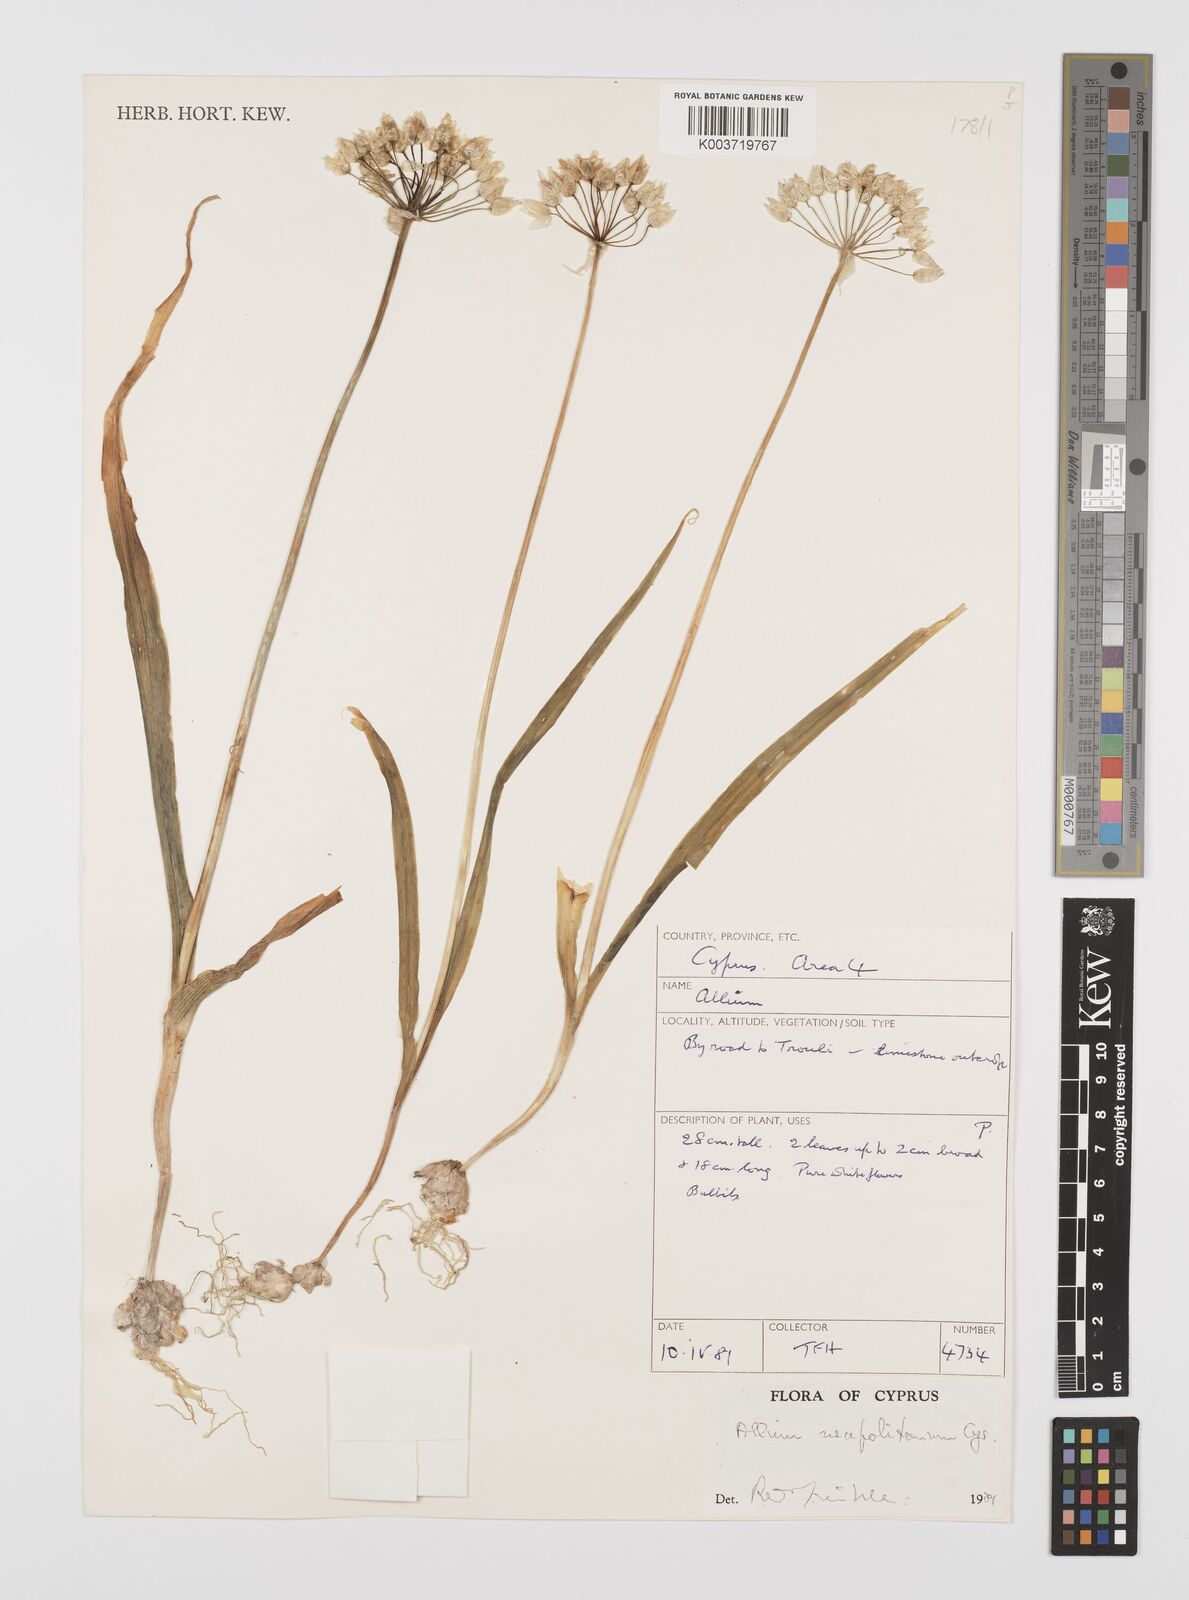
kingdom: Plantae
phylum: Tracheophyta
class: Liliopsida
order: Asparagales
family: Amaryllidaceae
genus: Allium
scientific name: Allium neapolitanum
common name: Neapolitan garlic
